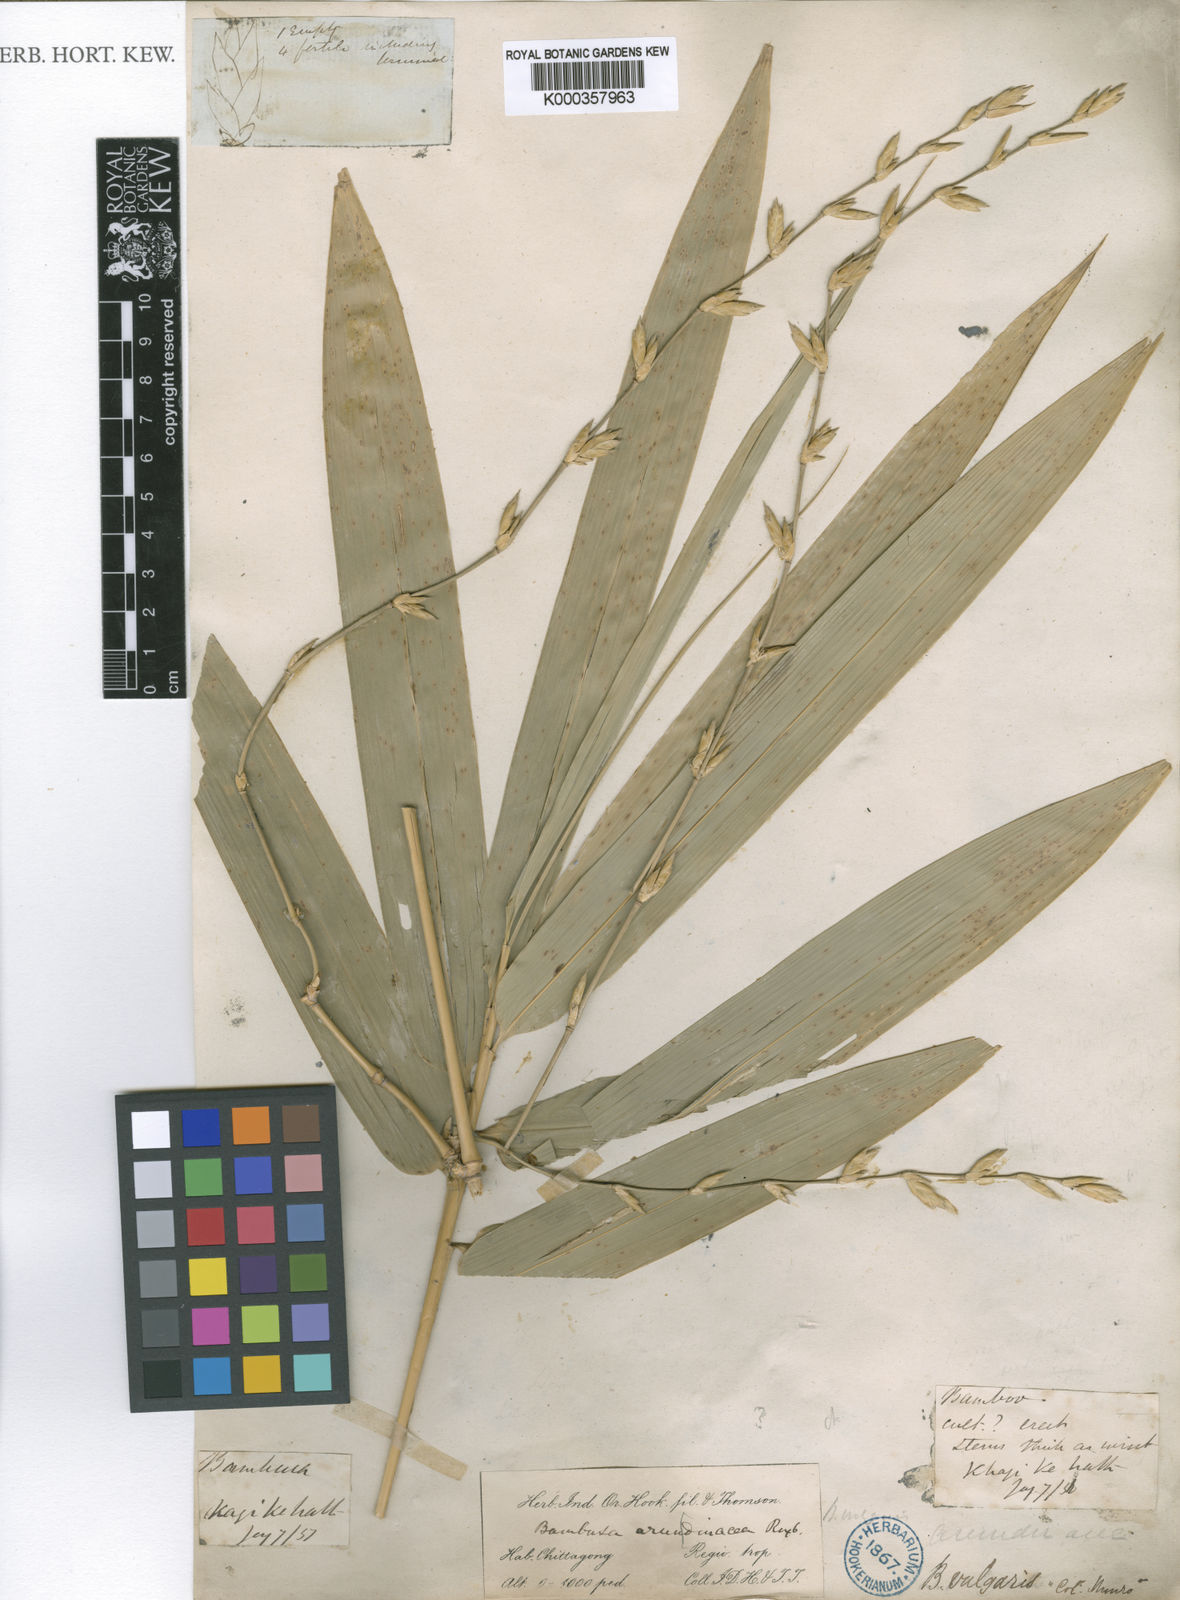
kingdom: Plantae
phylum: Tracheophyta
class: Liliopsida
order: Poales
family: Poaceae
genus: Bambusa
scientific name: Bambusa
